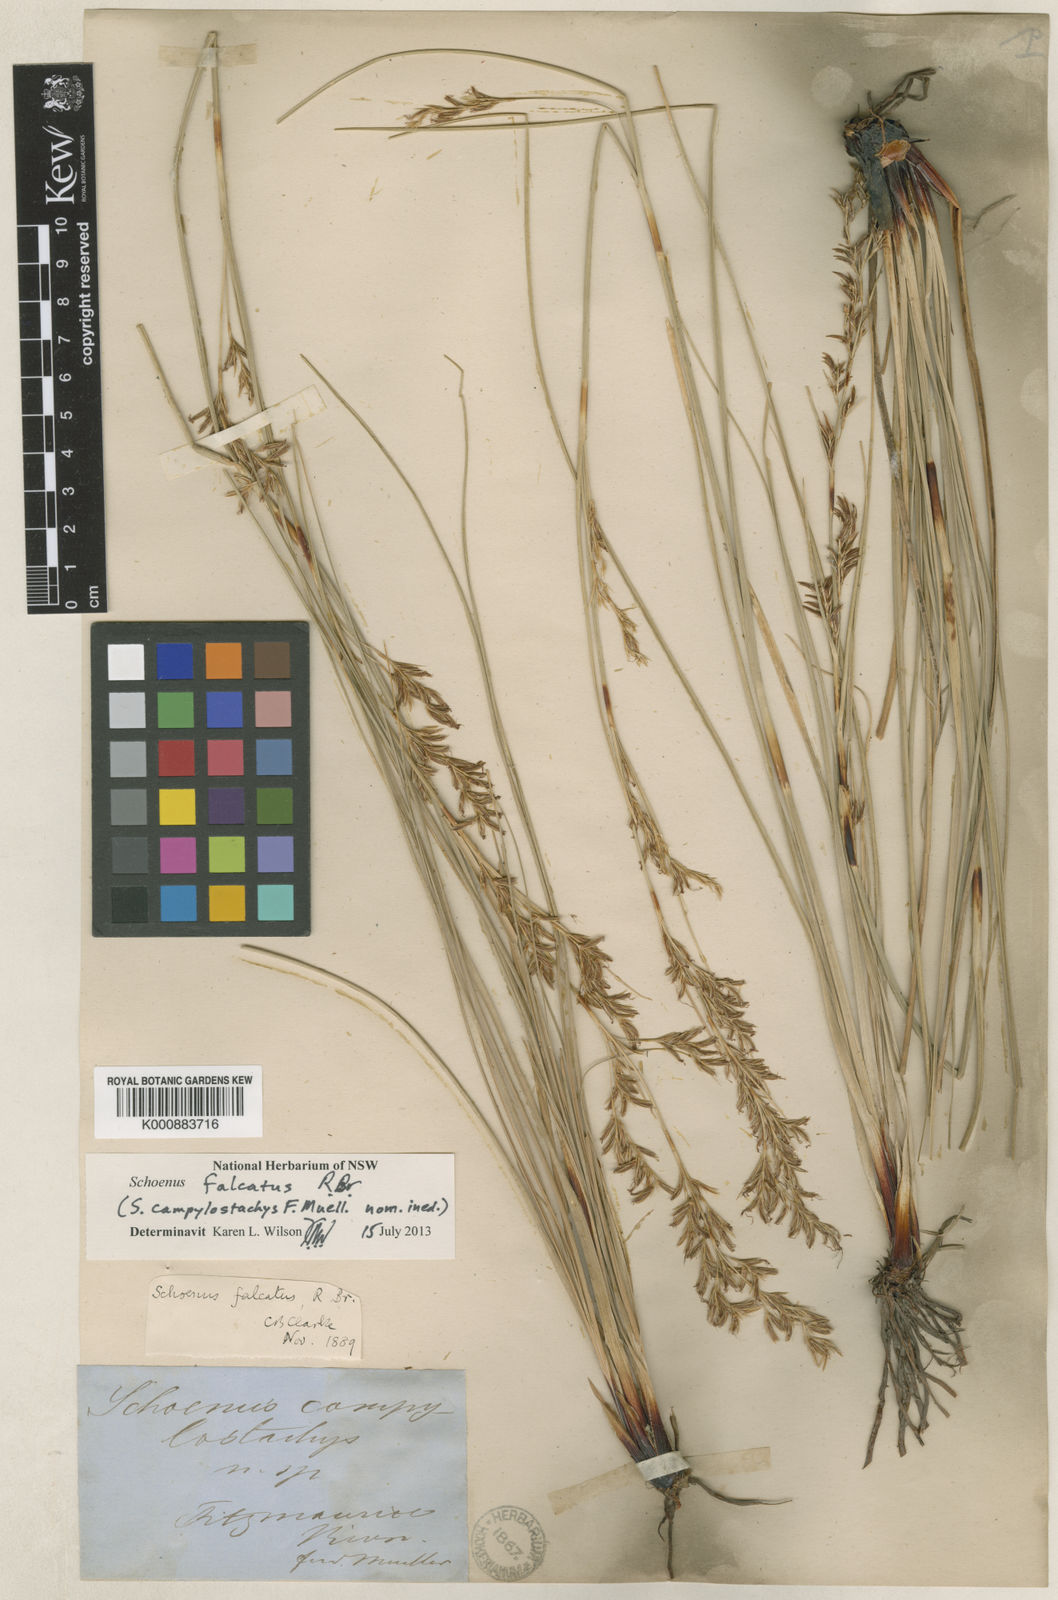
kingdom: Plantae
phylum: Tracheophyta
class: Liliopsida
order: Poales
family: Cyperaceae
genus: Schoenus
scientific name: Schoenus falcatus
